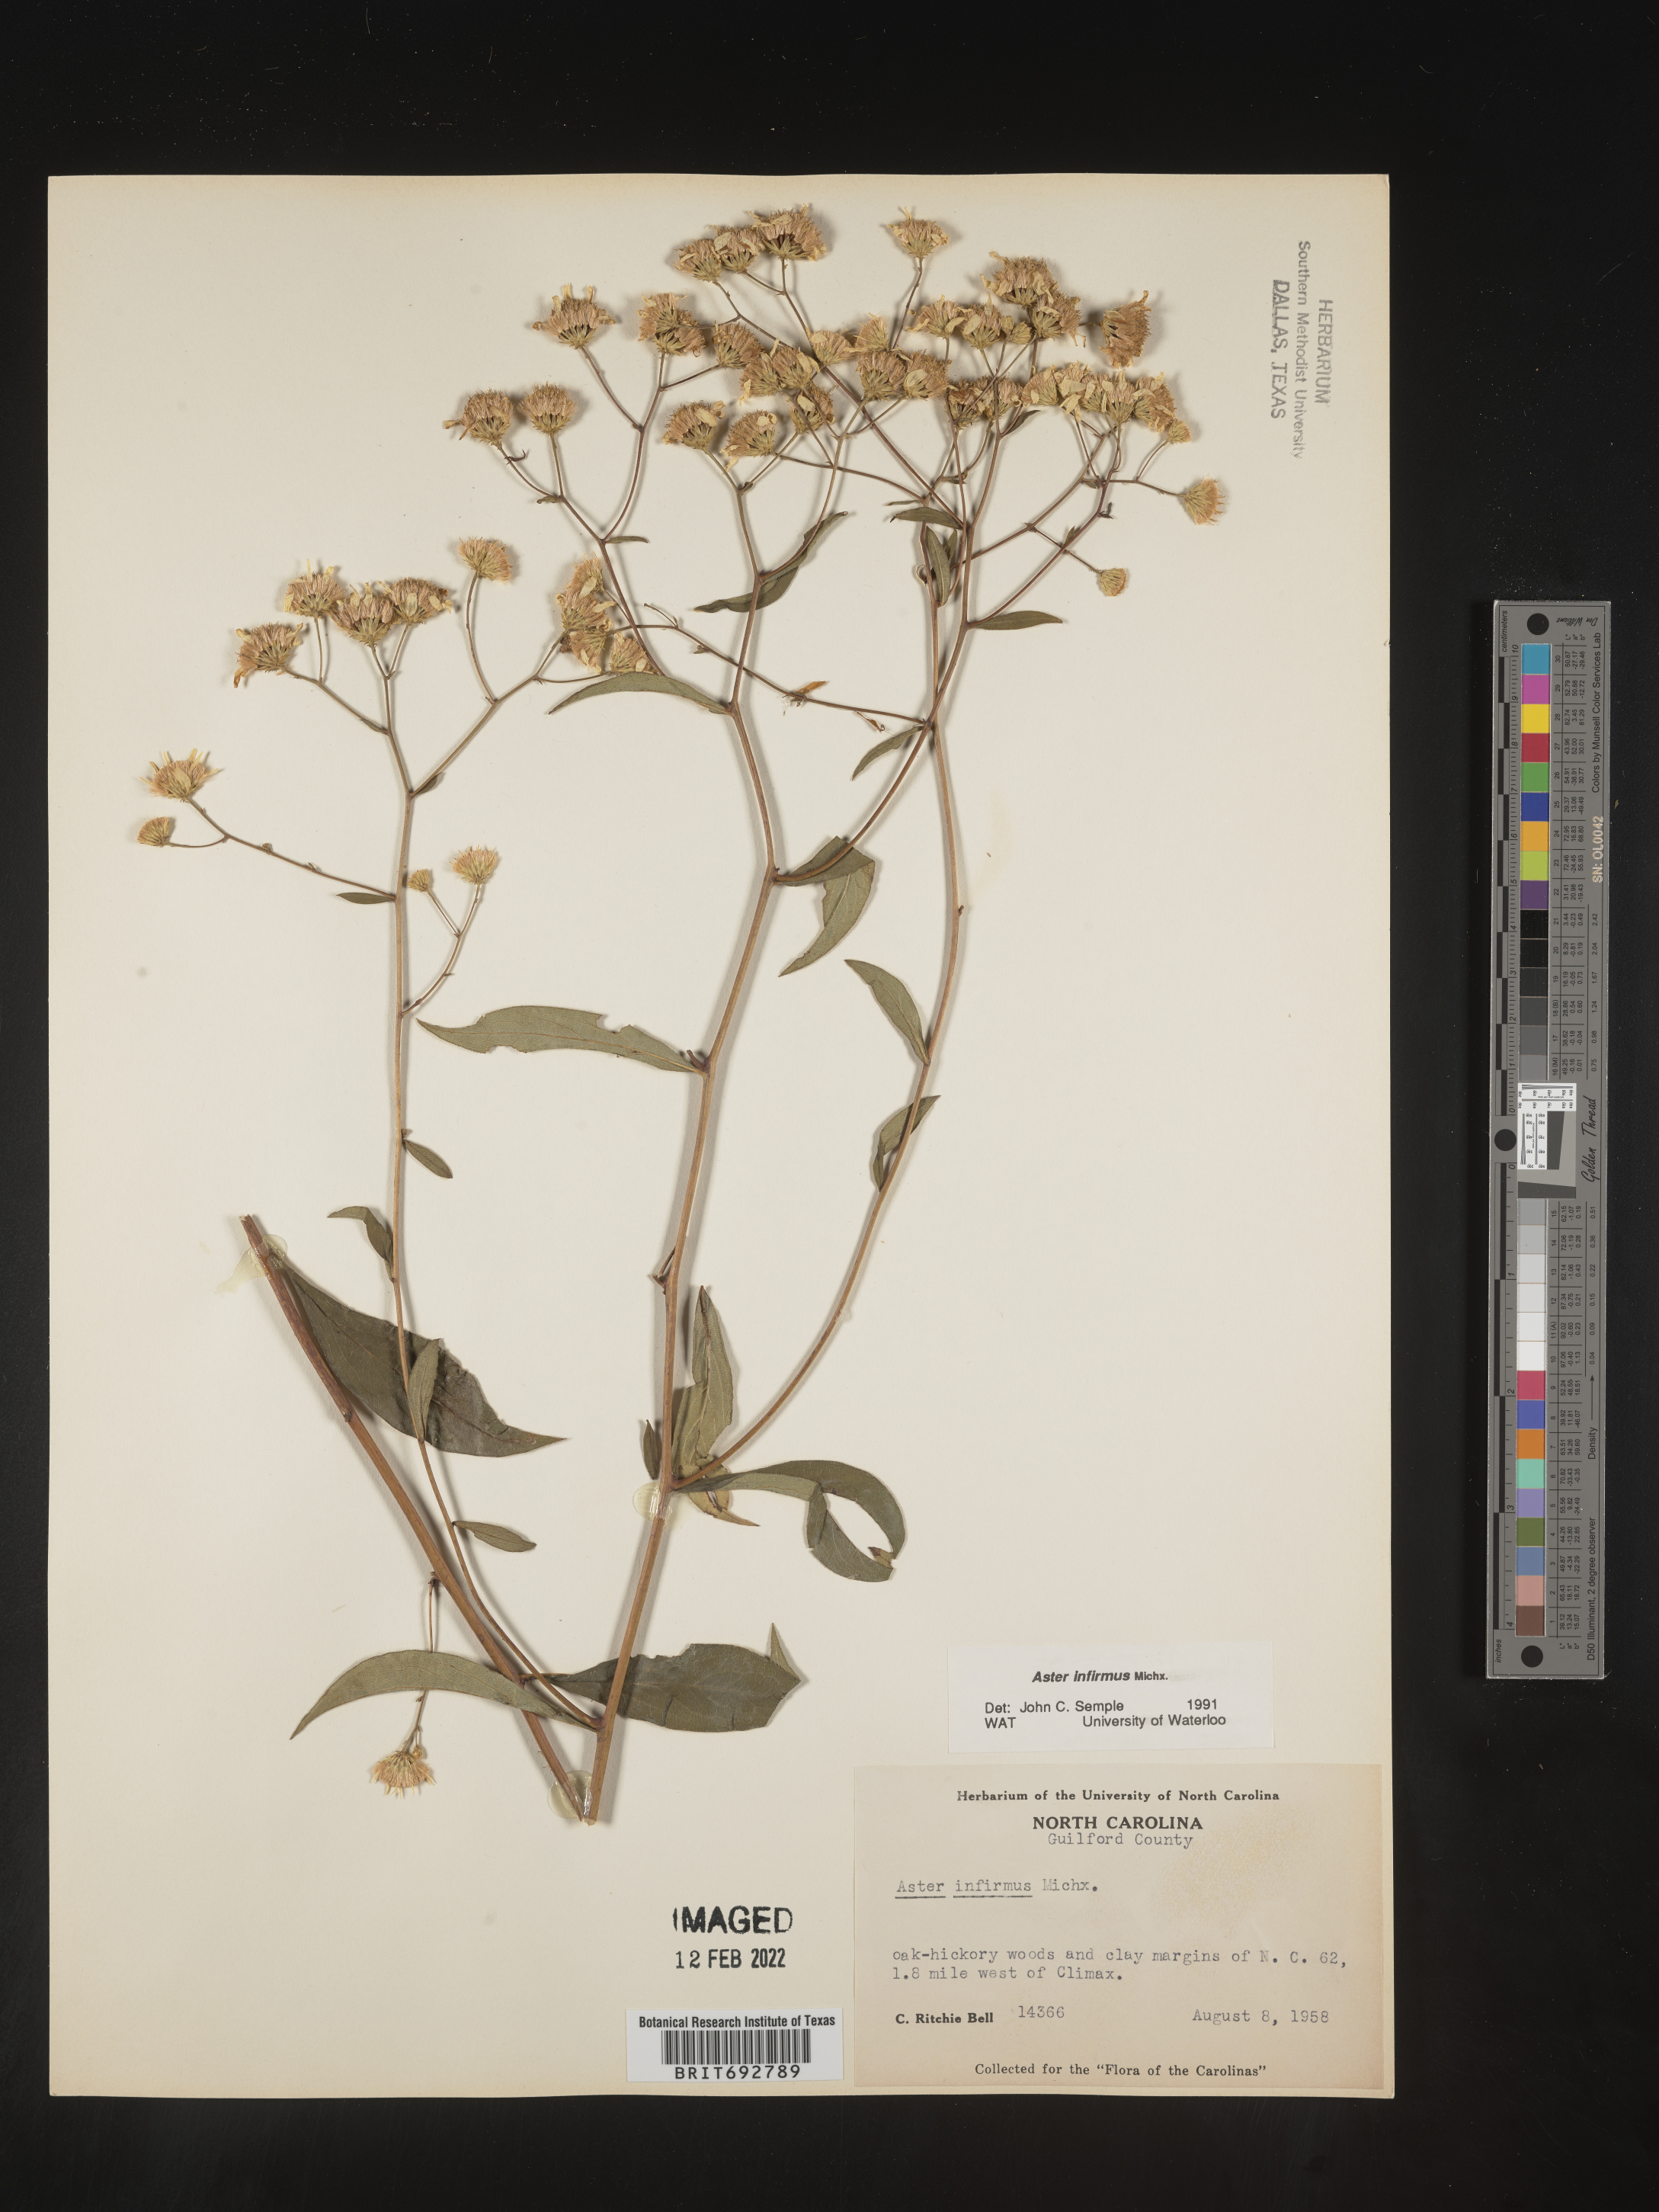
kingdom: Plantae
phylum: Tracheophyta
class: Magnoliopsida
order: Asterales
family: Asteraceae
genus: Doellingeria
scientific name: Doellingeria infirma
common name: Appalachian flat-top aster
